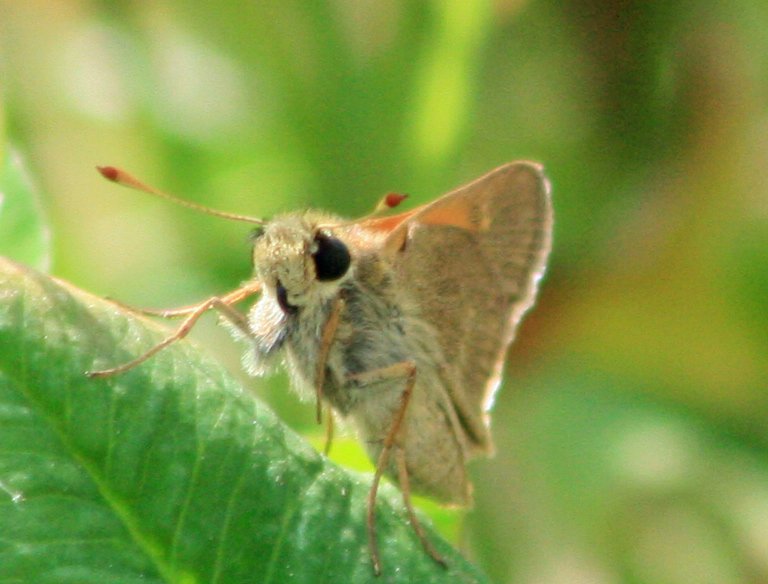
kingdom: Animalia
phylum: Arthropoda
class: Insecta
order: Lepidoptera
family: Hesperiidae
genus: Polites
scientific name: Polites themistocles
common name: Tawny-edged Skipper
